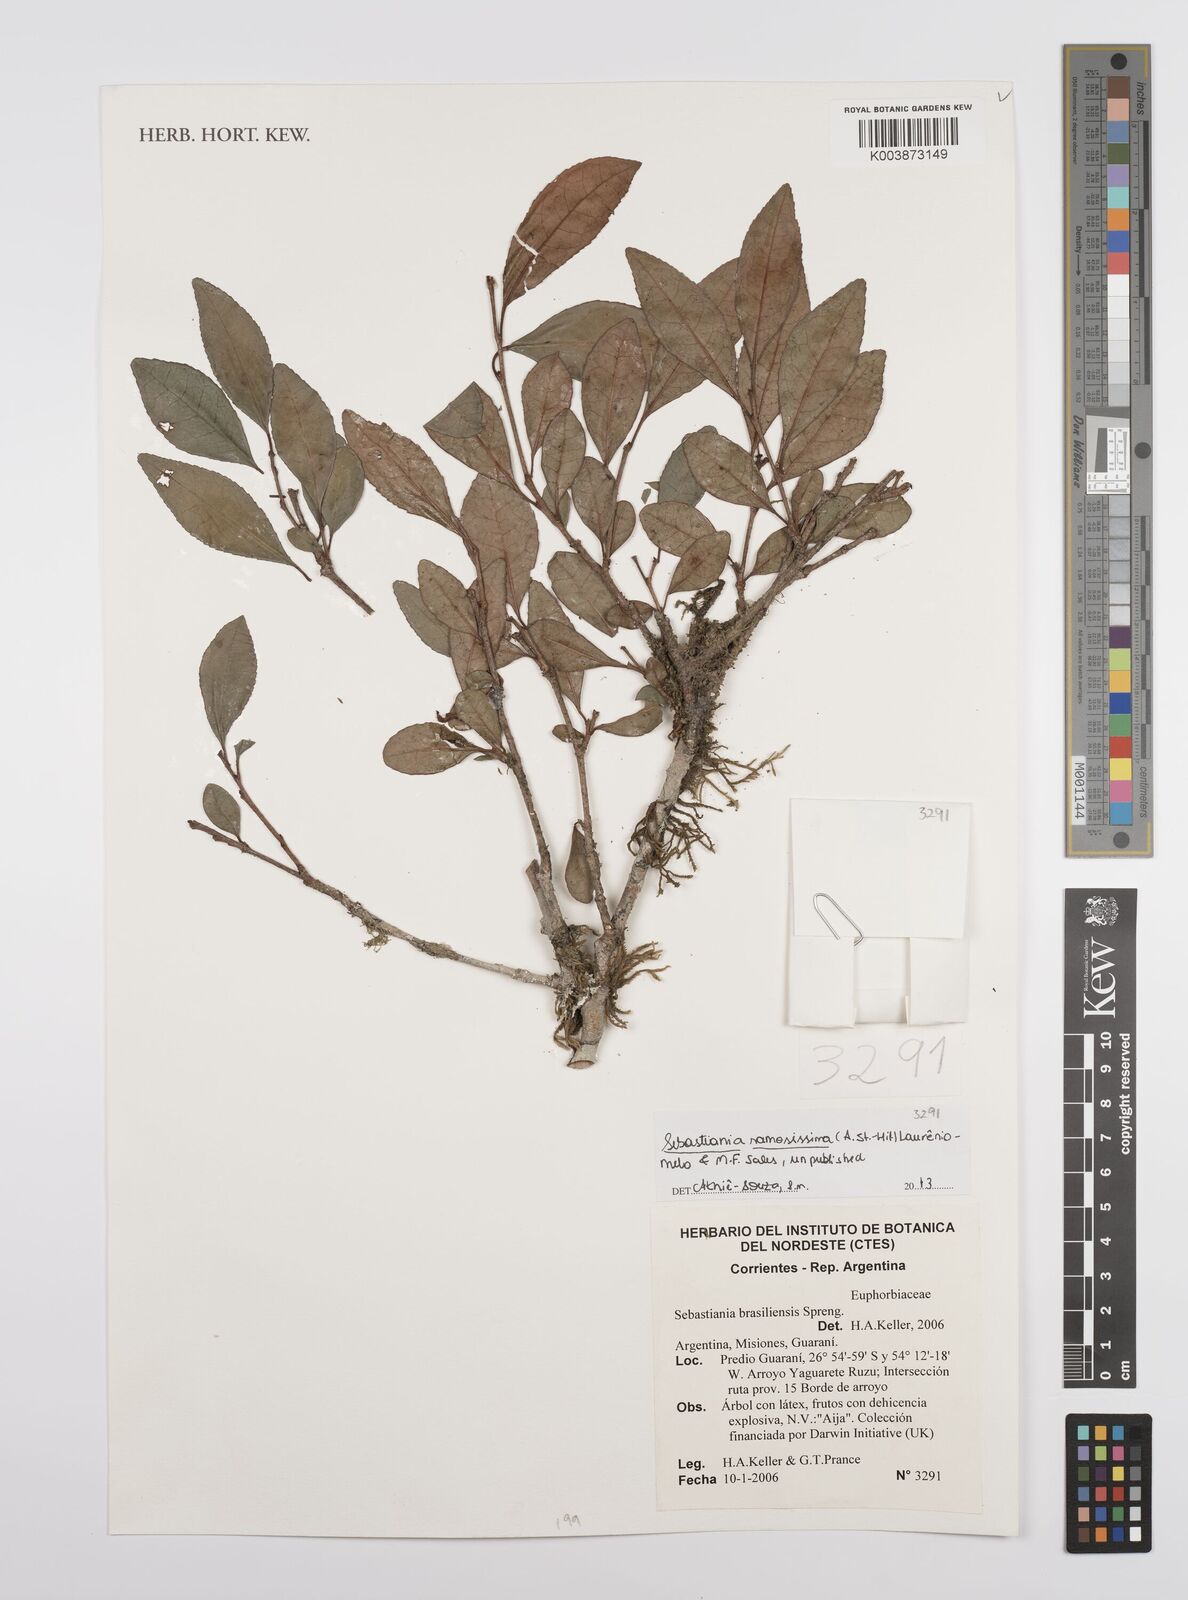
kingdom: Plantae
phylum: Tracheophyta
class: Magnoliopsida
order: Malpighiales
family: Euphorbiaceae
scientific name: Euphorbiaceae
